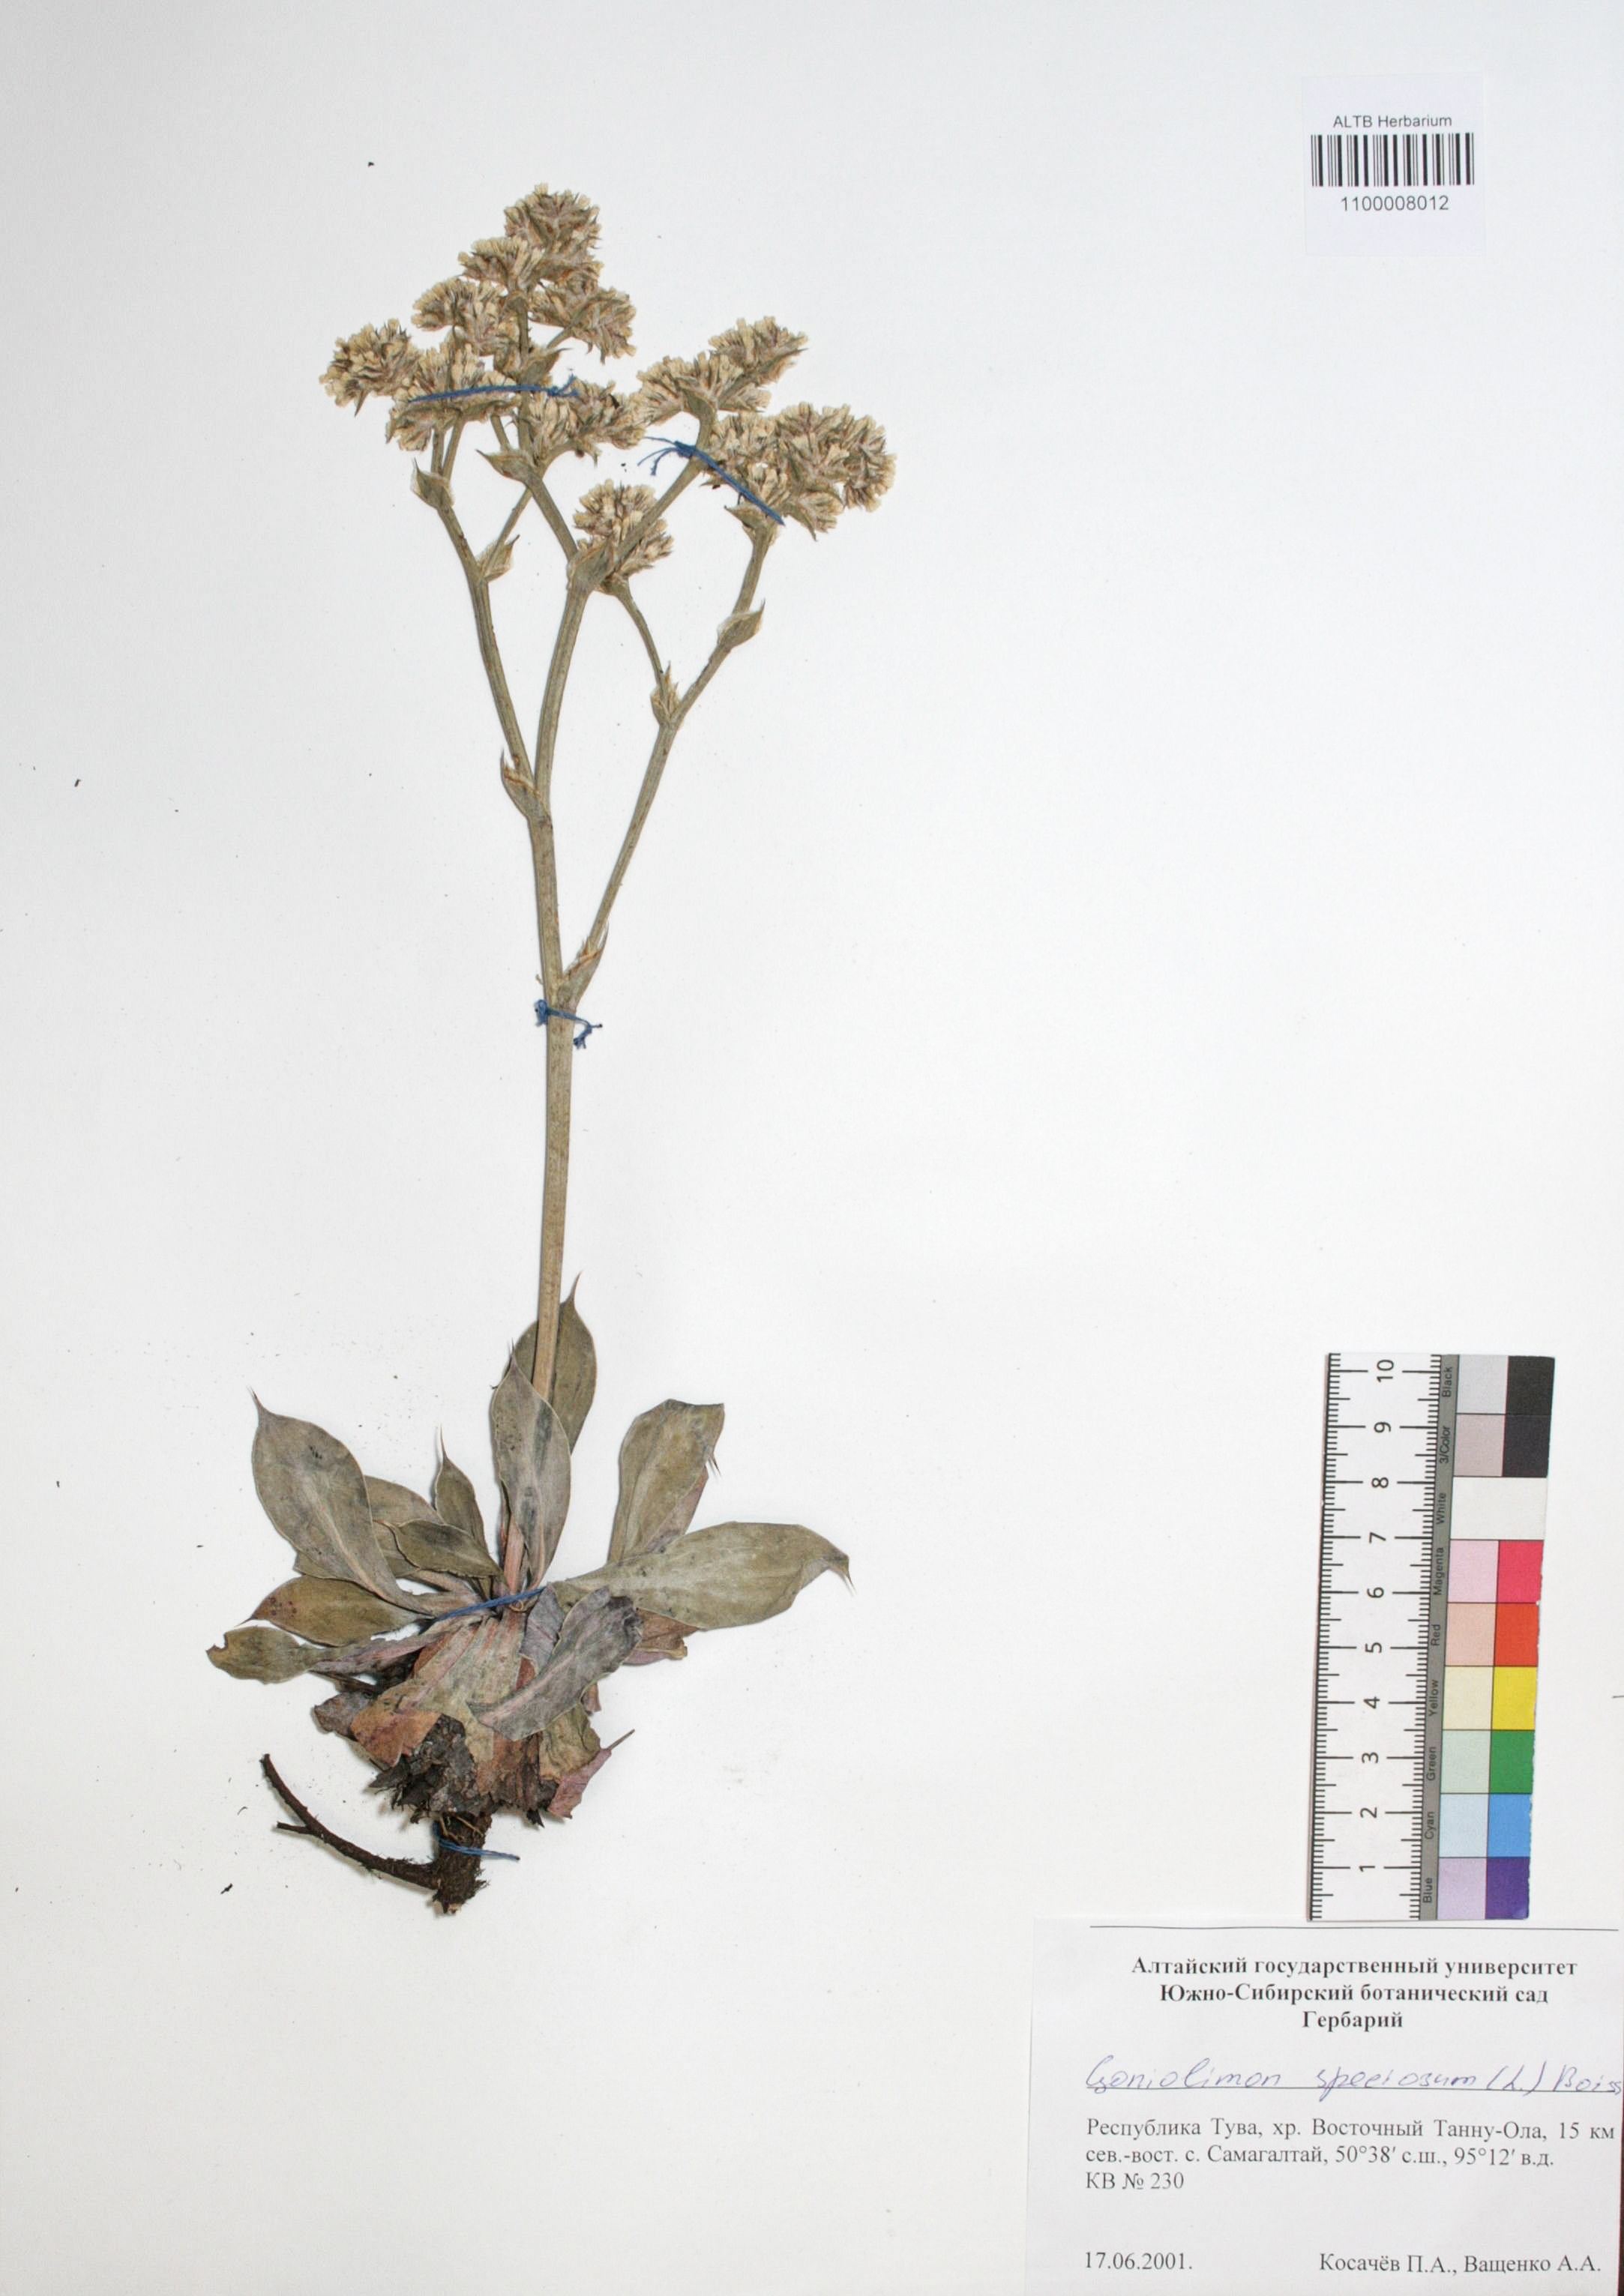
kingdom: Plantae
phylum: Tracheophyta
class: Magnoliopsida
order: Caryophyllales
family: Plumbaginaceae
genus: Goniolimon
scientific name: Goniolimon speciosum
